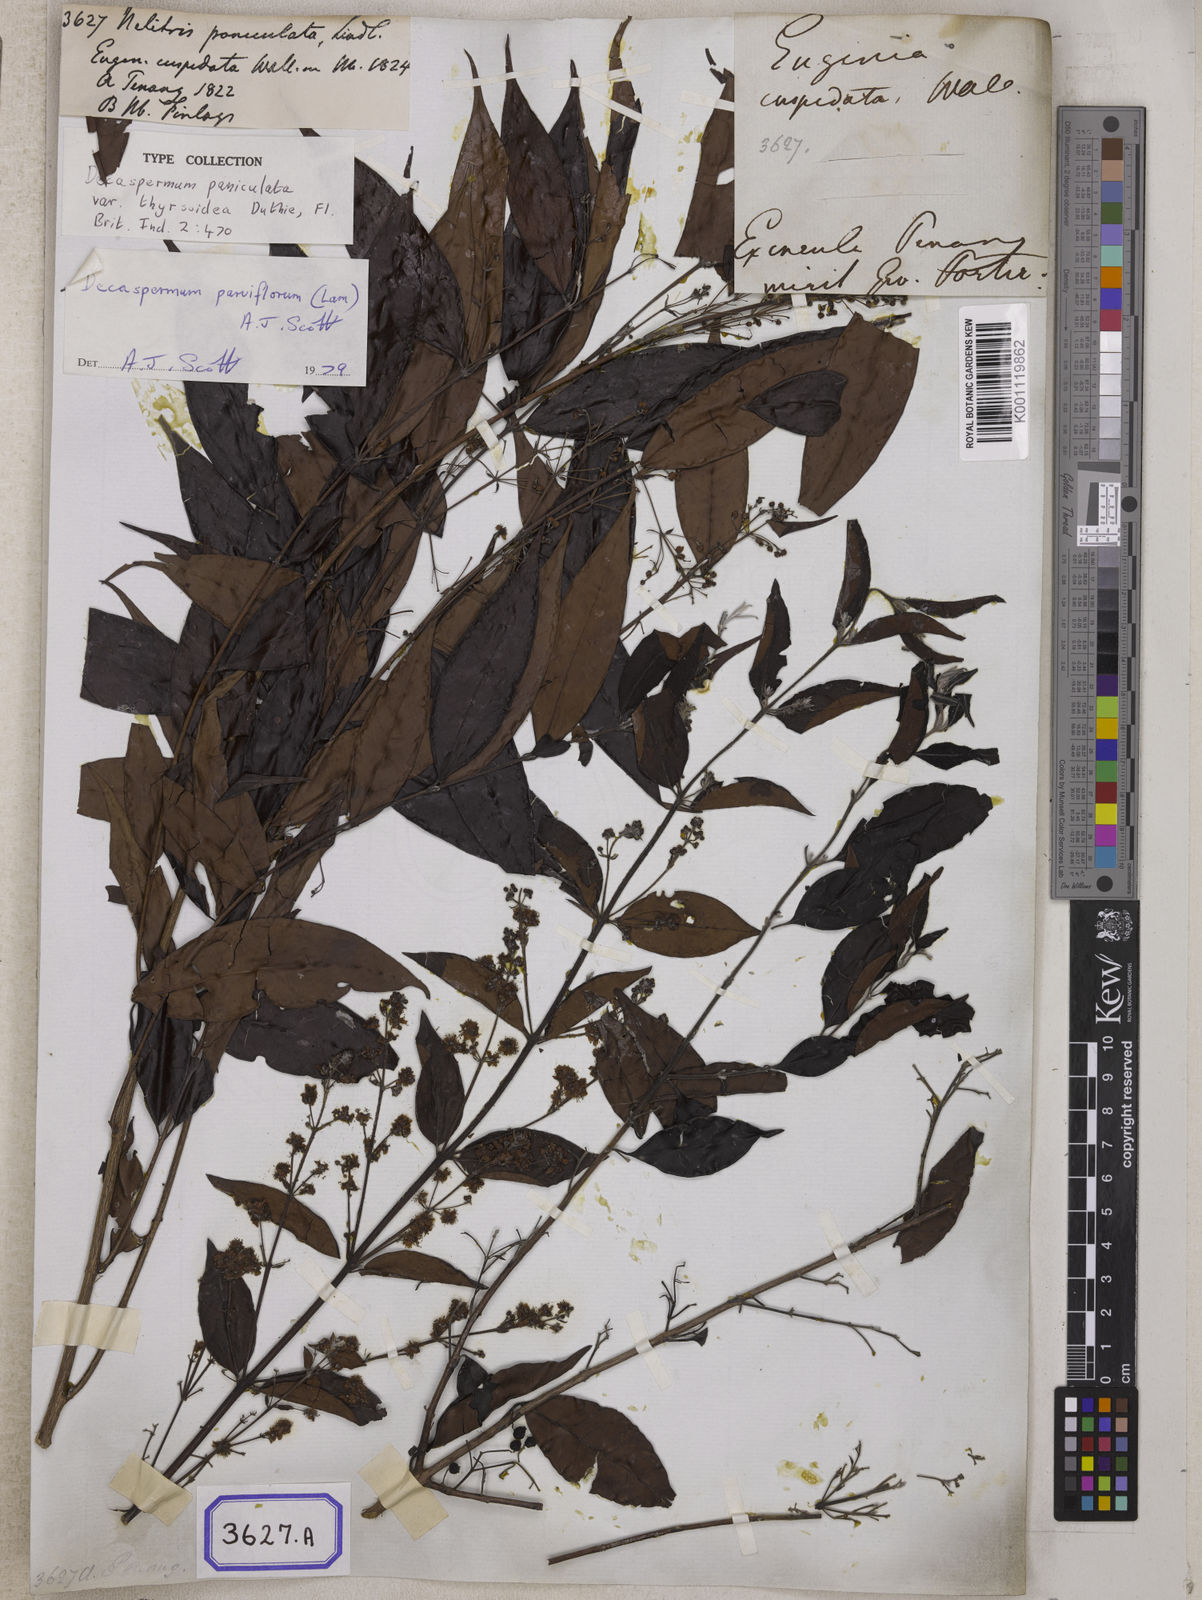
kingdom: Plantae
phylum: Tracheophyta
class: Magnoliopsida
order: Myrtales
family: Myrtaceae
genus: Decaspermum
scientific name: Decaspermum parviflorum
